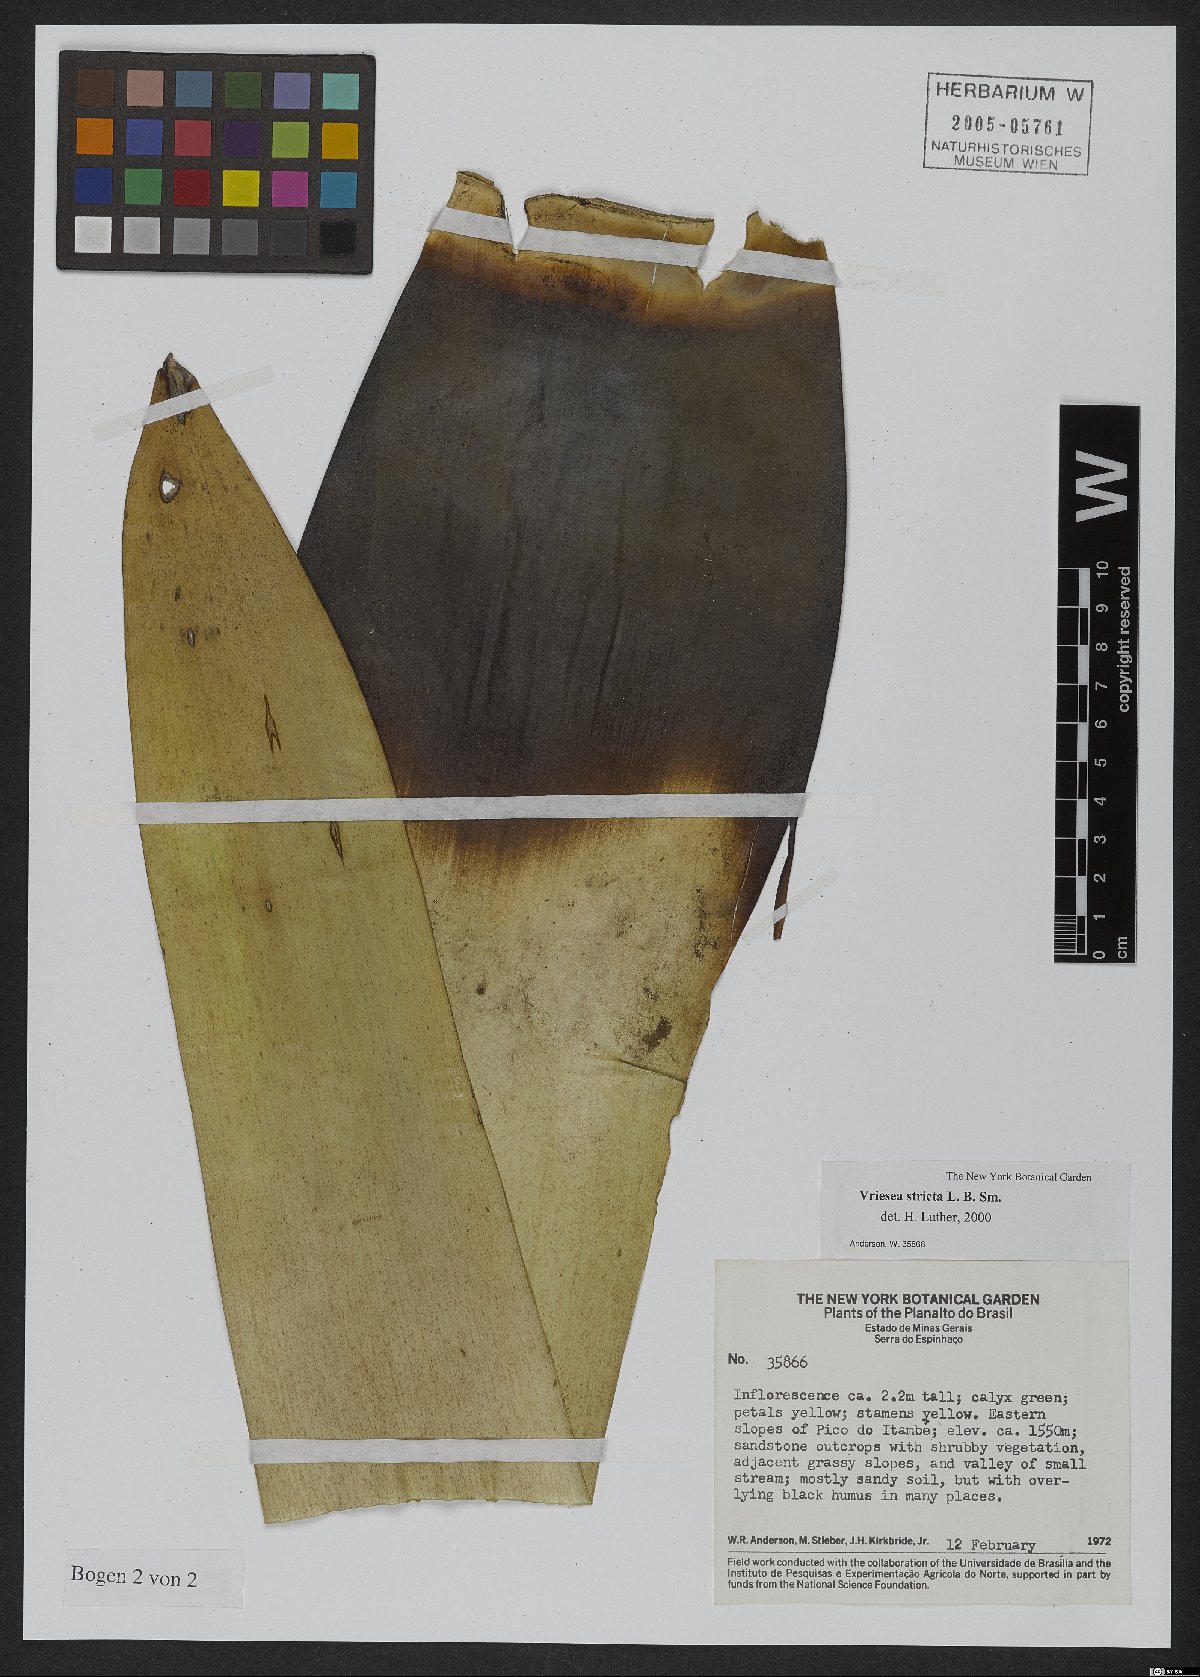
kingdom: Plantae
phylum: Tracheophyta
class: Liliopsida
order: Poales
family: Bromeliaceae
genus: Vriesea
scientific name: Vriesea crassa
